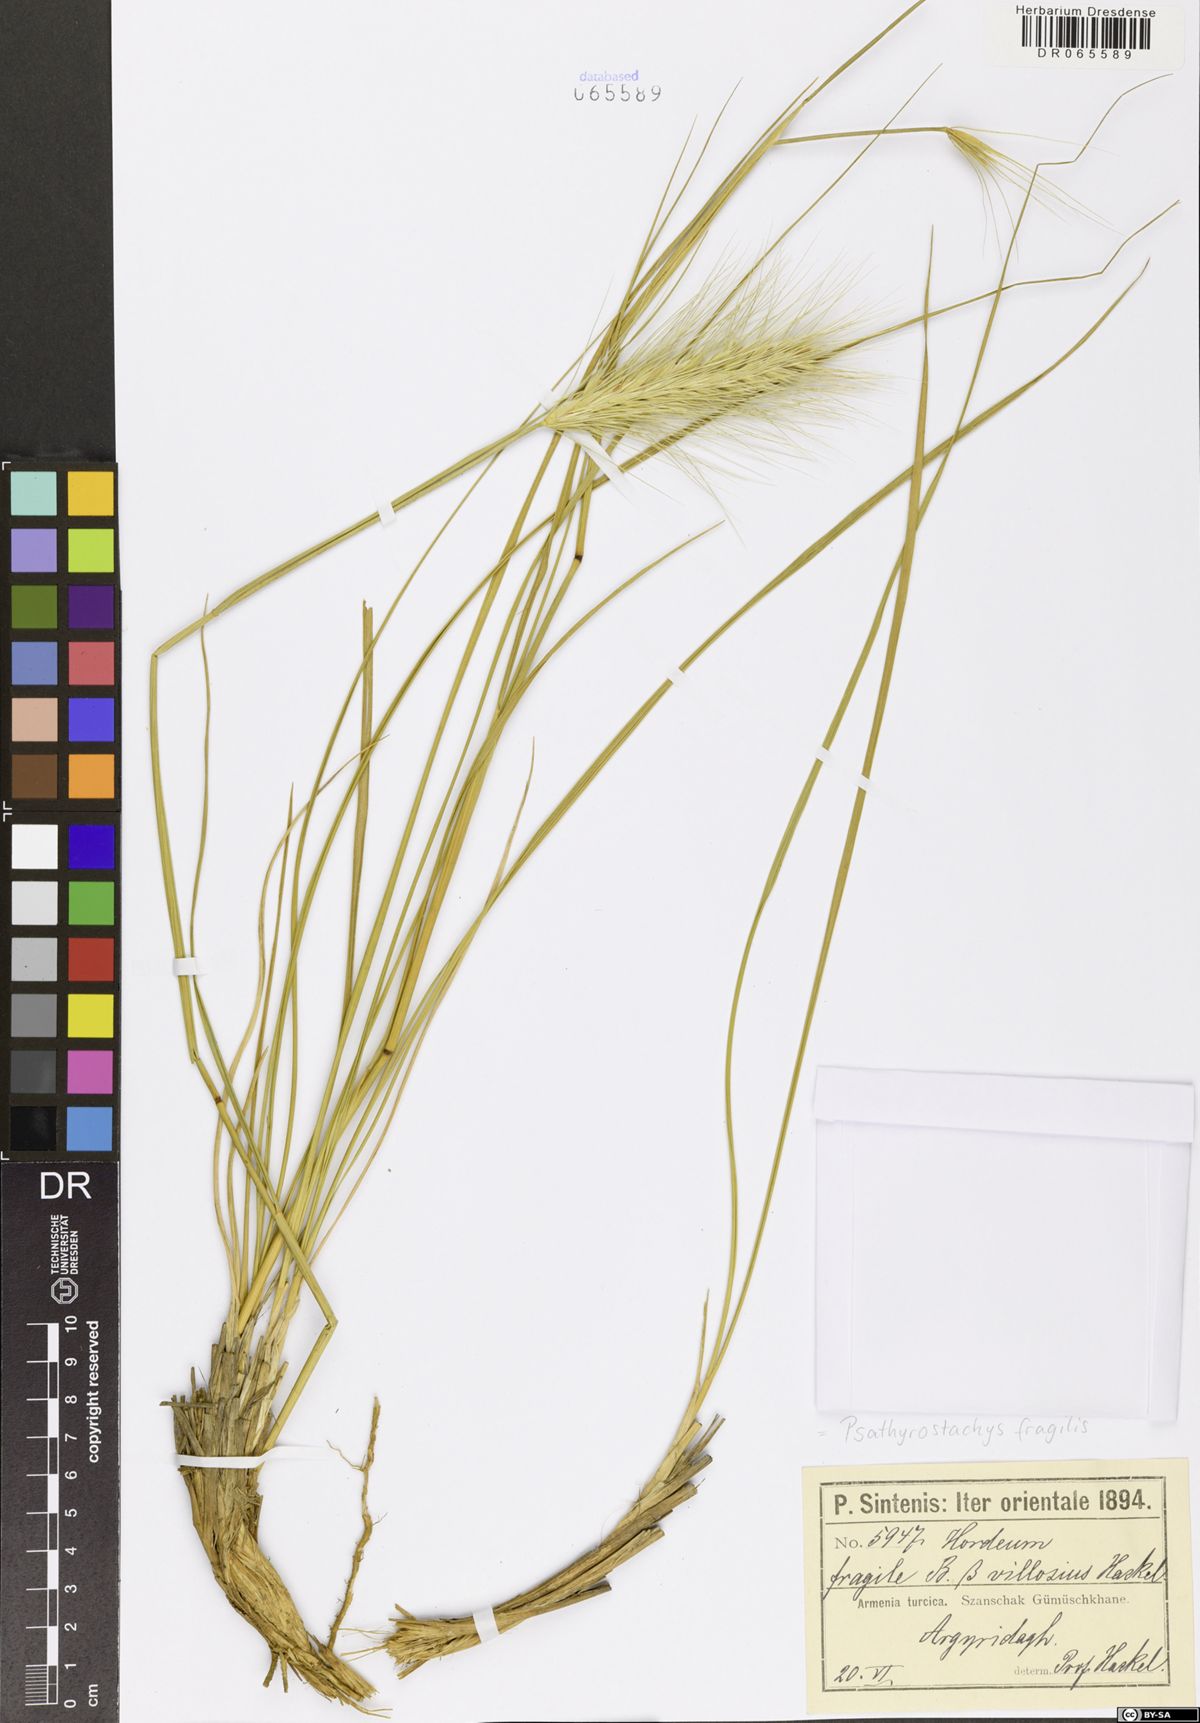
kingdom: Plantae
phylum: Tracheophyta
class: Liliopsida
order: Poales
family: Poaceae
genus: Psathyrostachys
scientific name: Psathyrostachys fragilis
